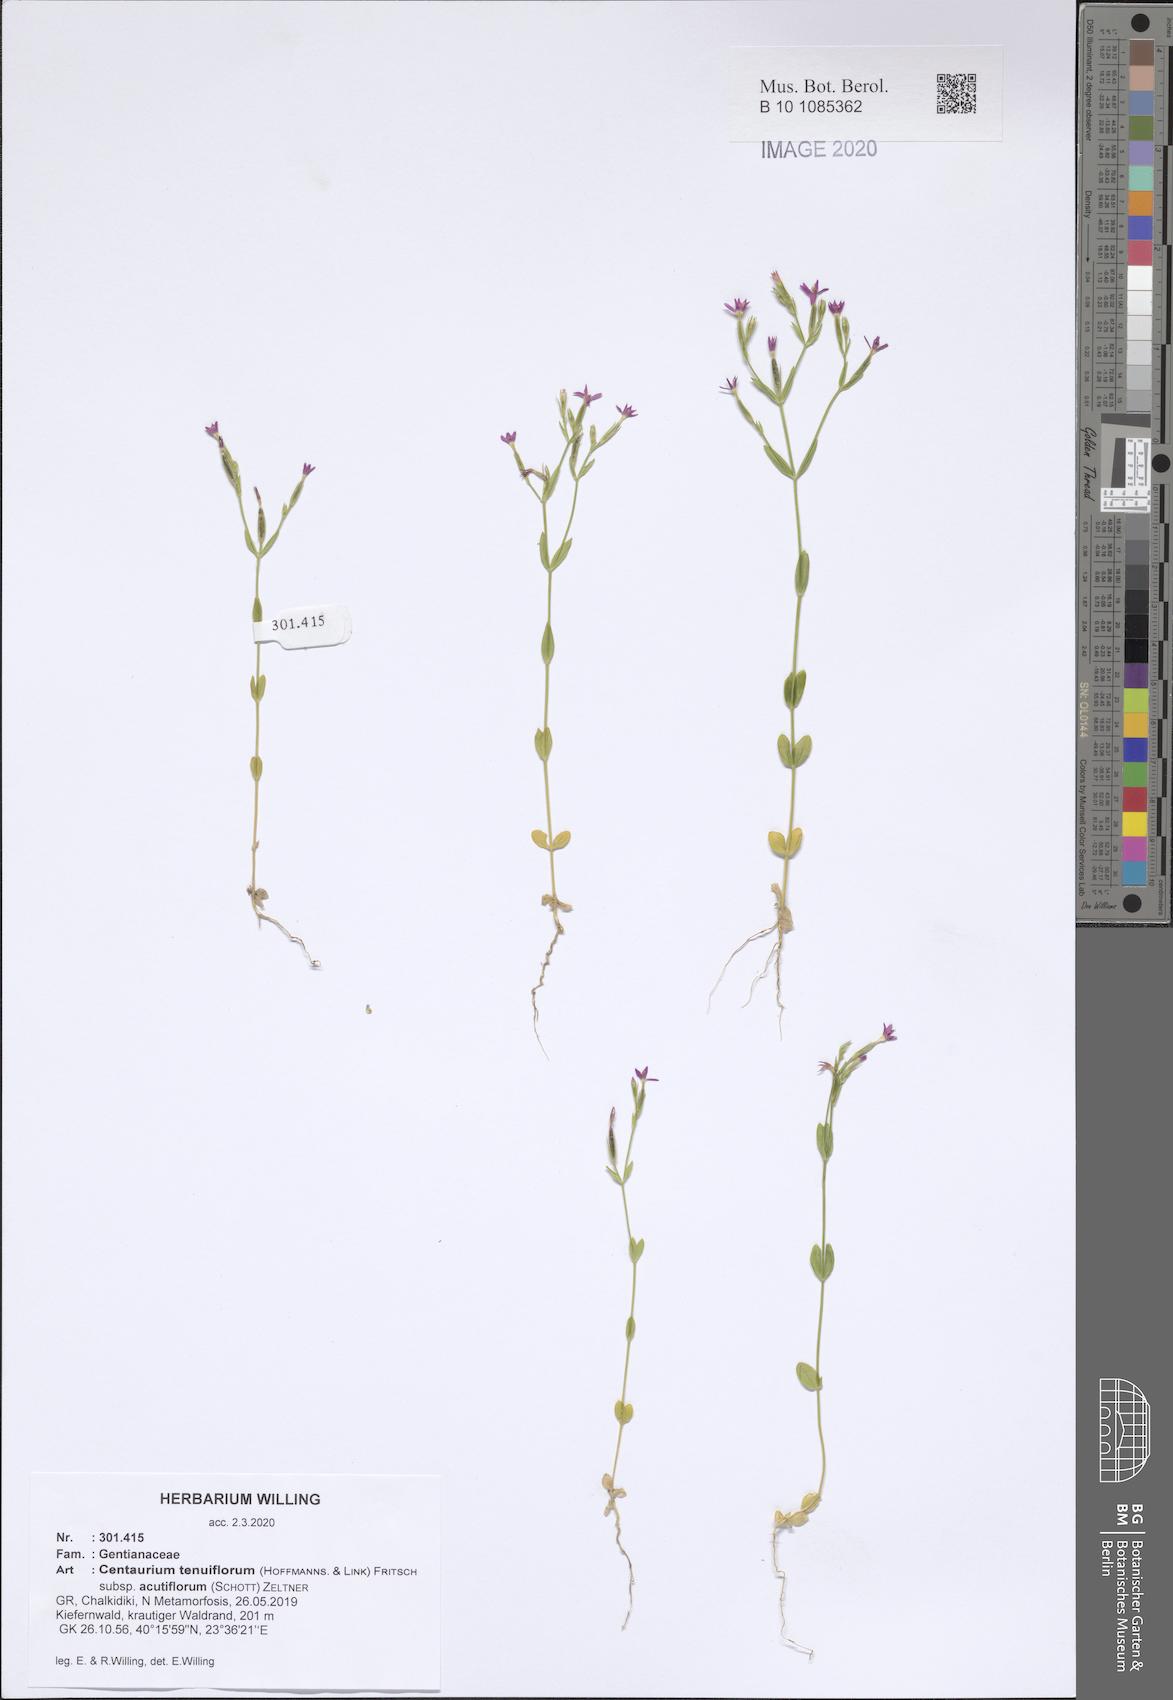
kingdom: Plantae
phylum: Tracheophyta
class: Magnoliopsida
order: Gentianales
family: Gentianaceae
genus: Centaurium
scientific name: Centaurium tenuiflorum
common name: Slender centaury
